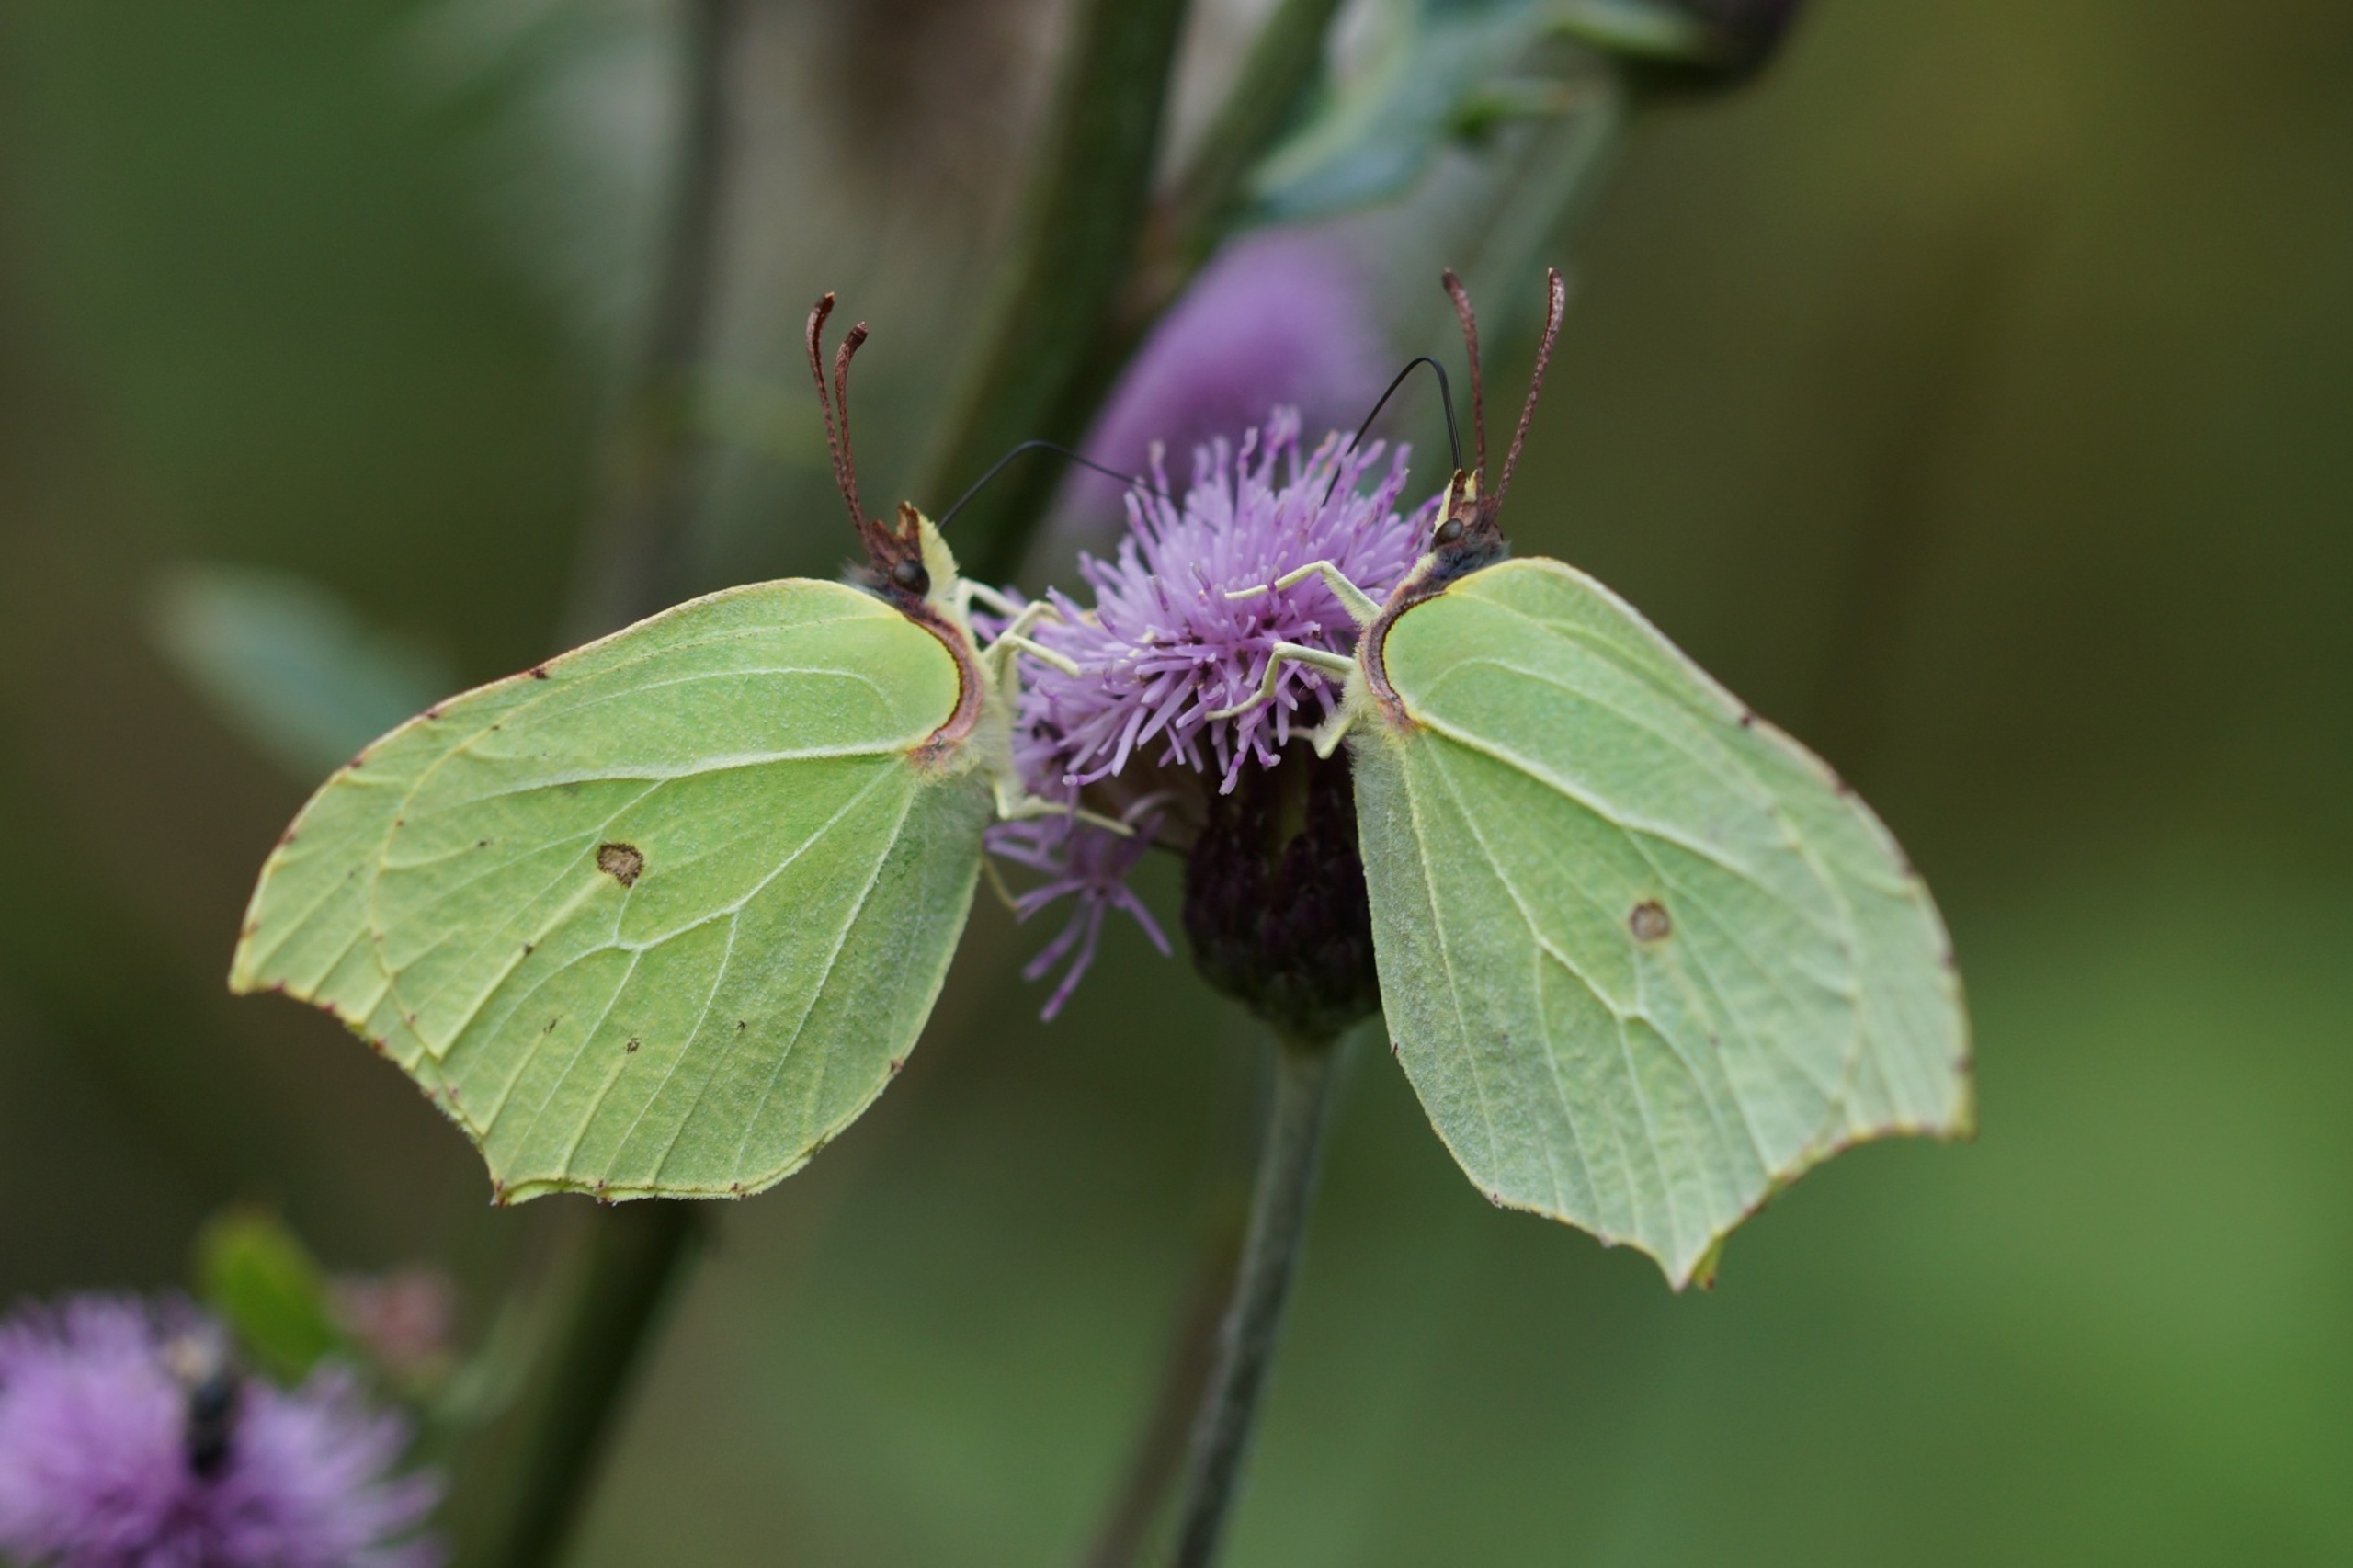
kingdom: Animalia
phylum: Arthropoda
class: Insecta
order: Lepidoptera
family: Pieridae
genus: Gonepteryx
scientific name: Gonepteryx rhamni
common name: Citronsommerfugl
